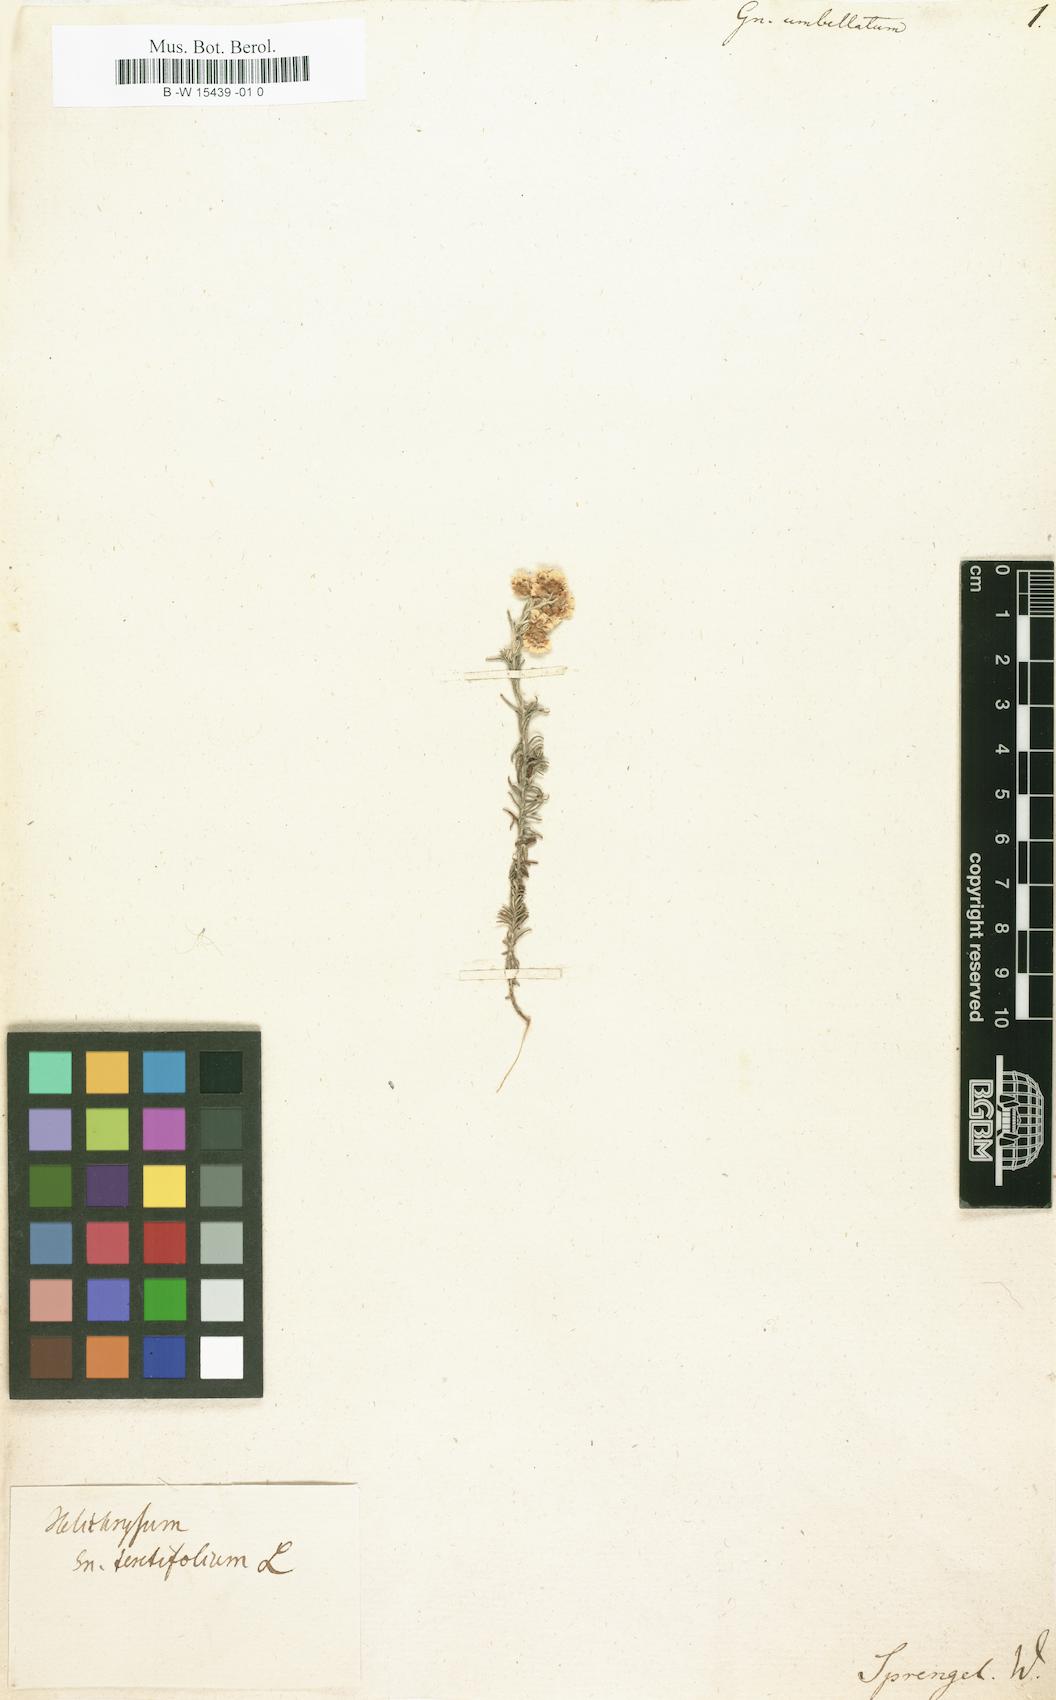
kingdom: Plantae
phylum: Tracheophyta
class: Magnoliopsida
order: Asterales
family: Asteraceae
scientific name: Asteraceae
